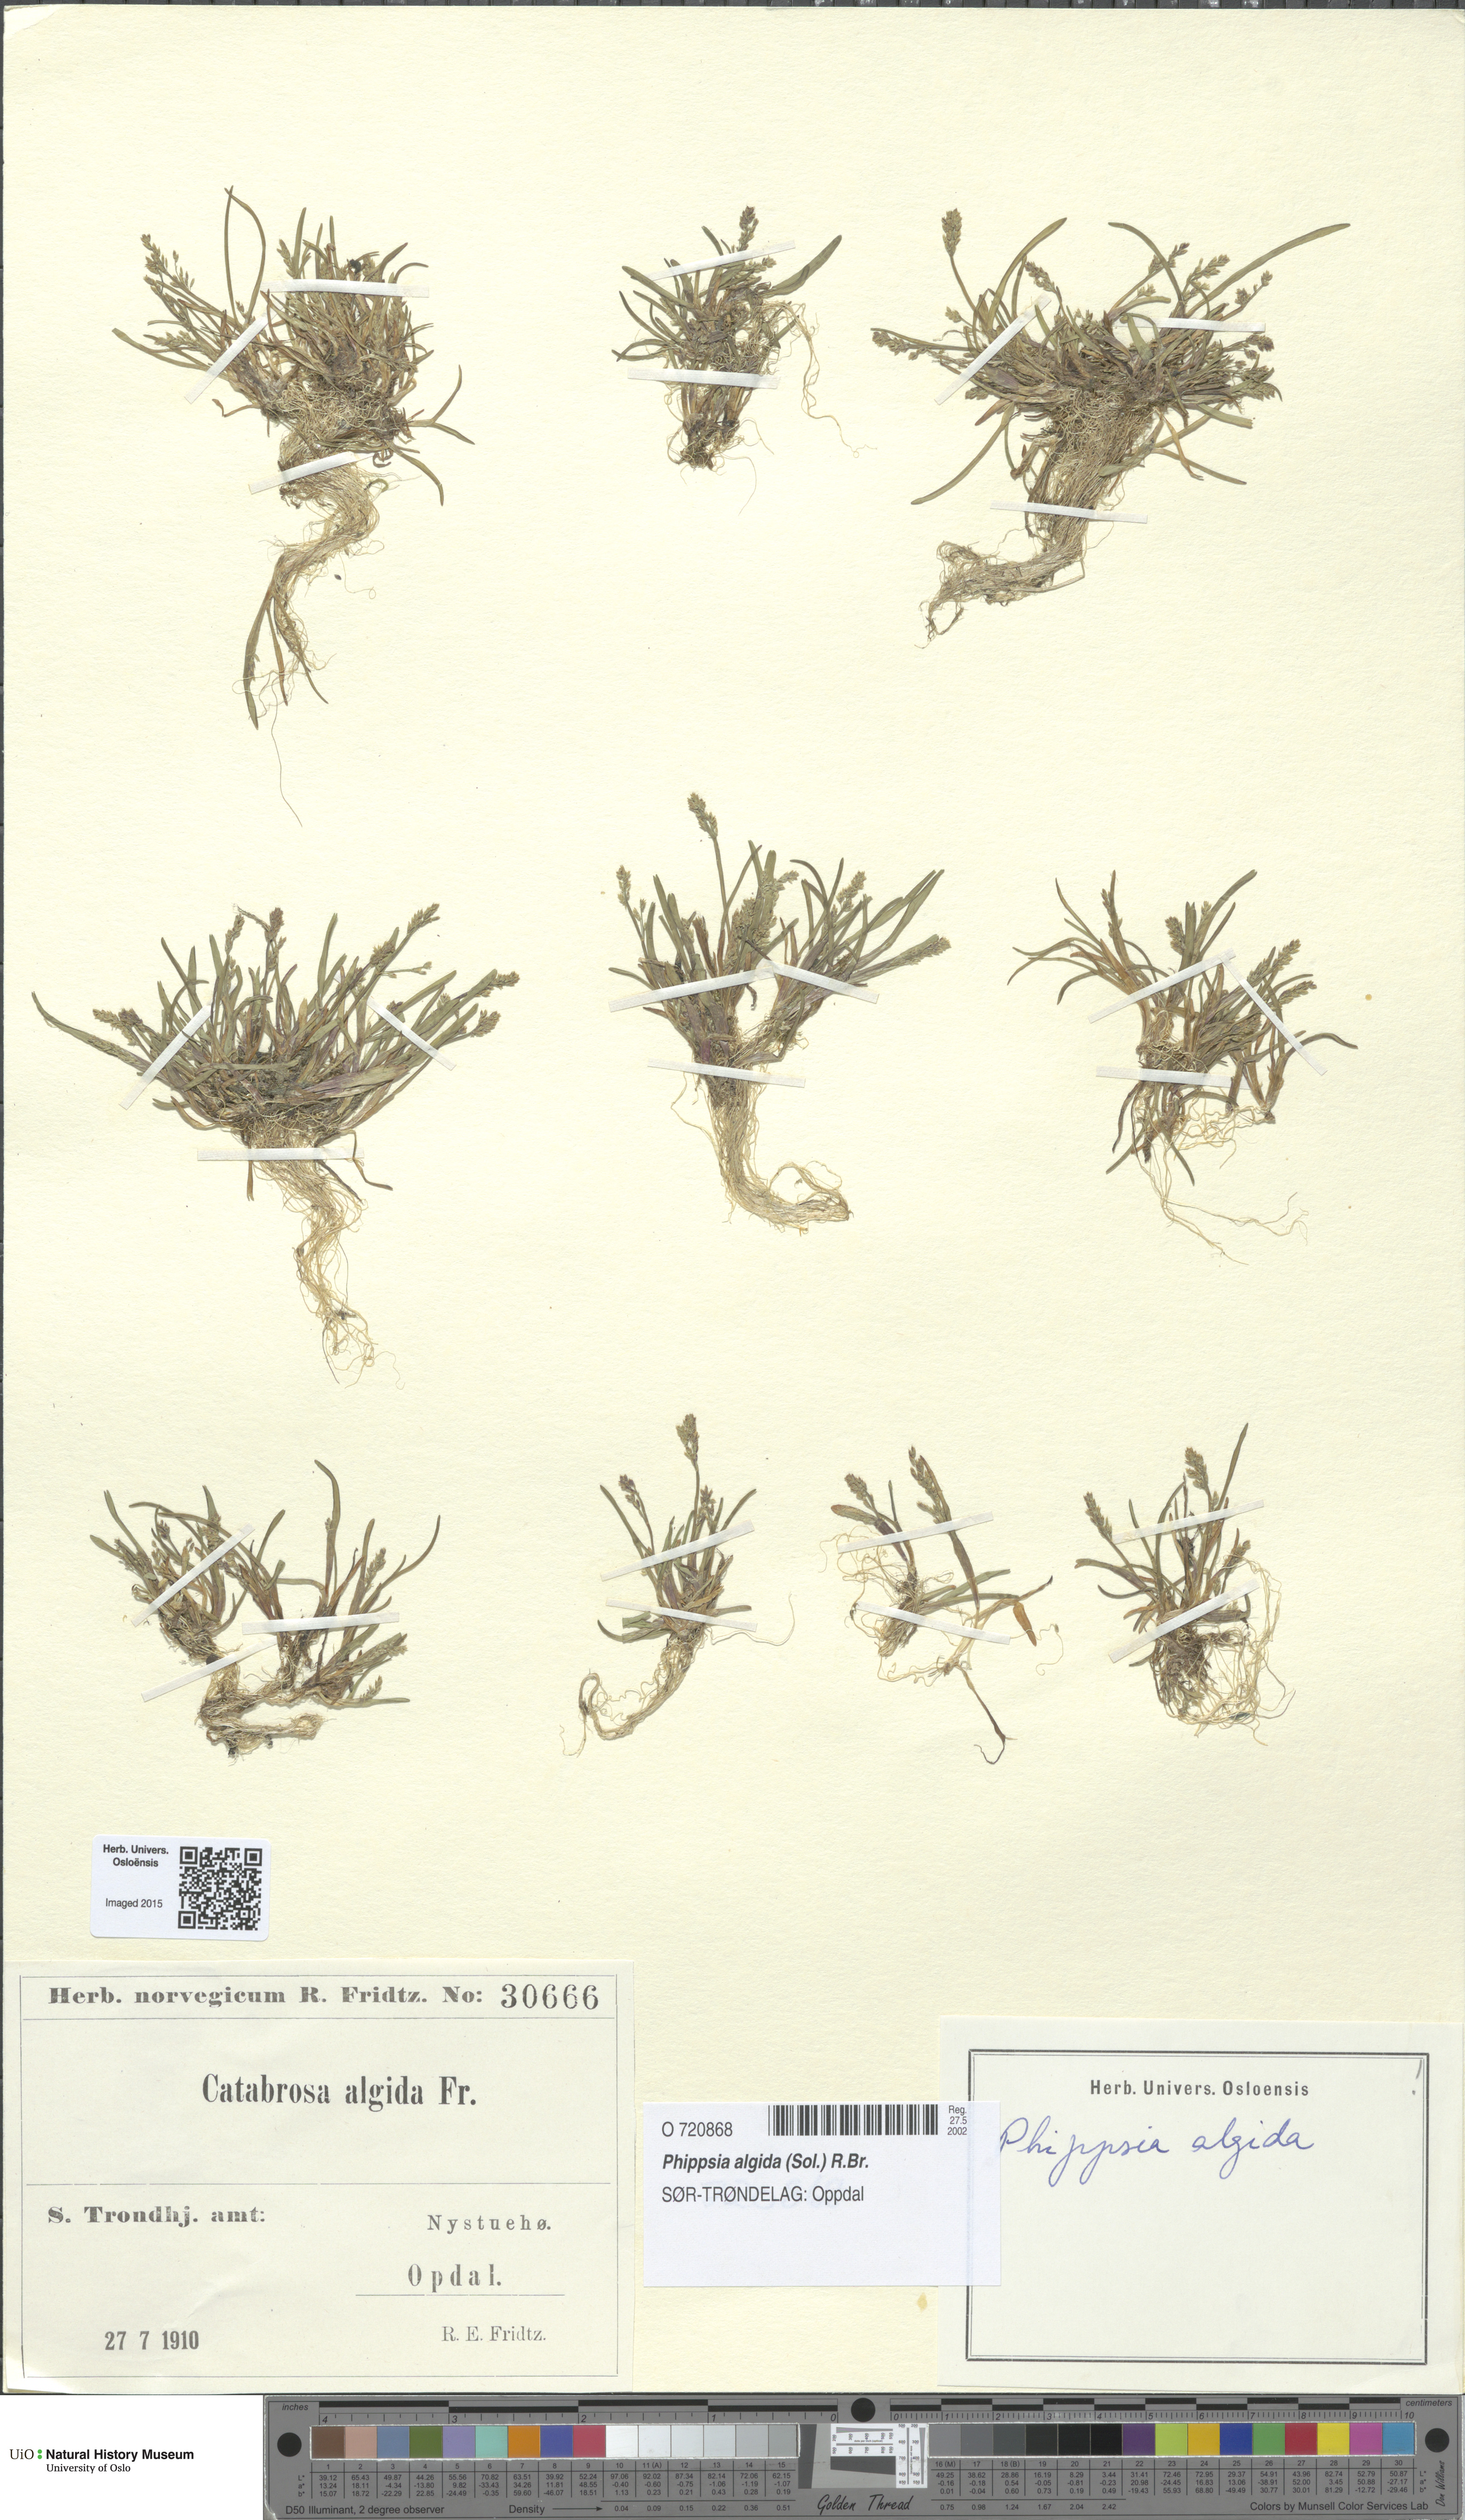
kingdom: Plantae
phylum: Tracheophyta
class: Liliopsida
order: Poales
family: Poaceae
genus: Phippsia
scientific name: Phippsia algida
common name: Ice grass
